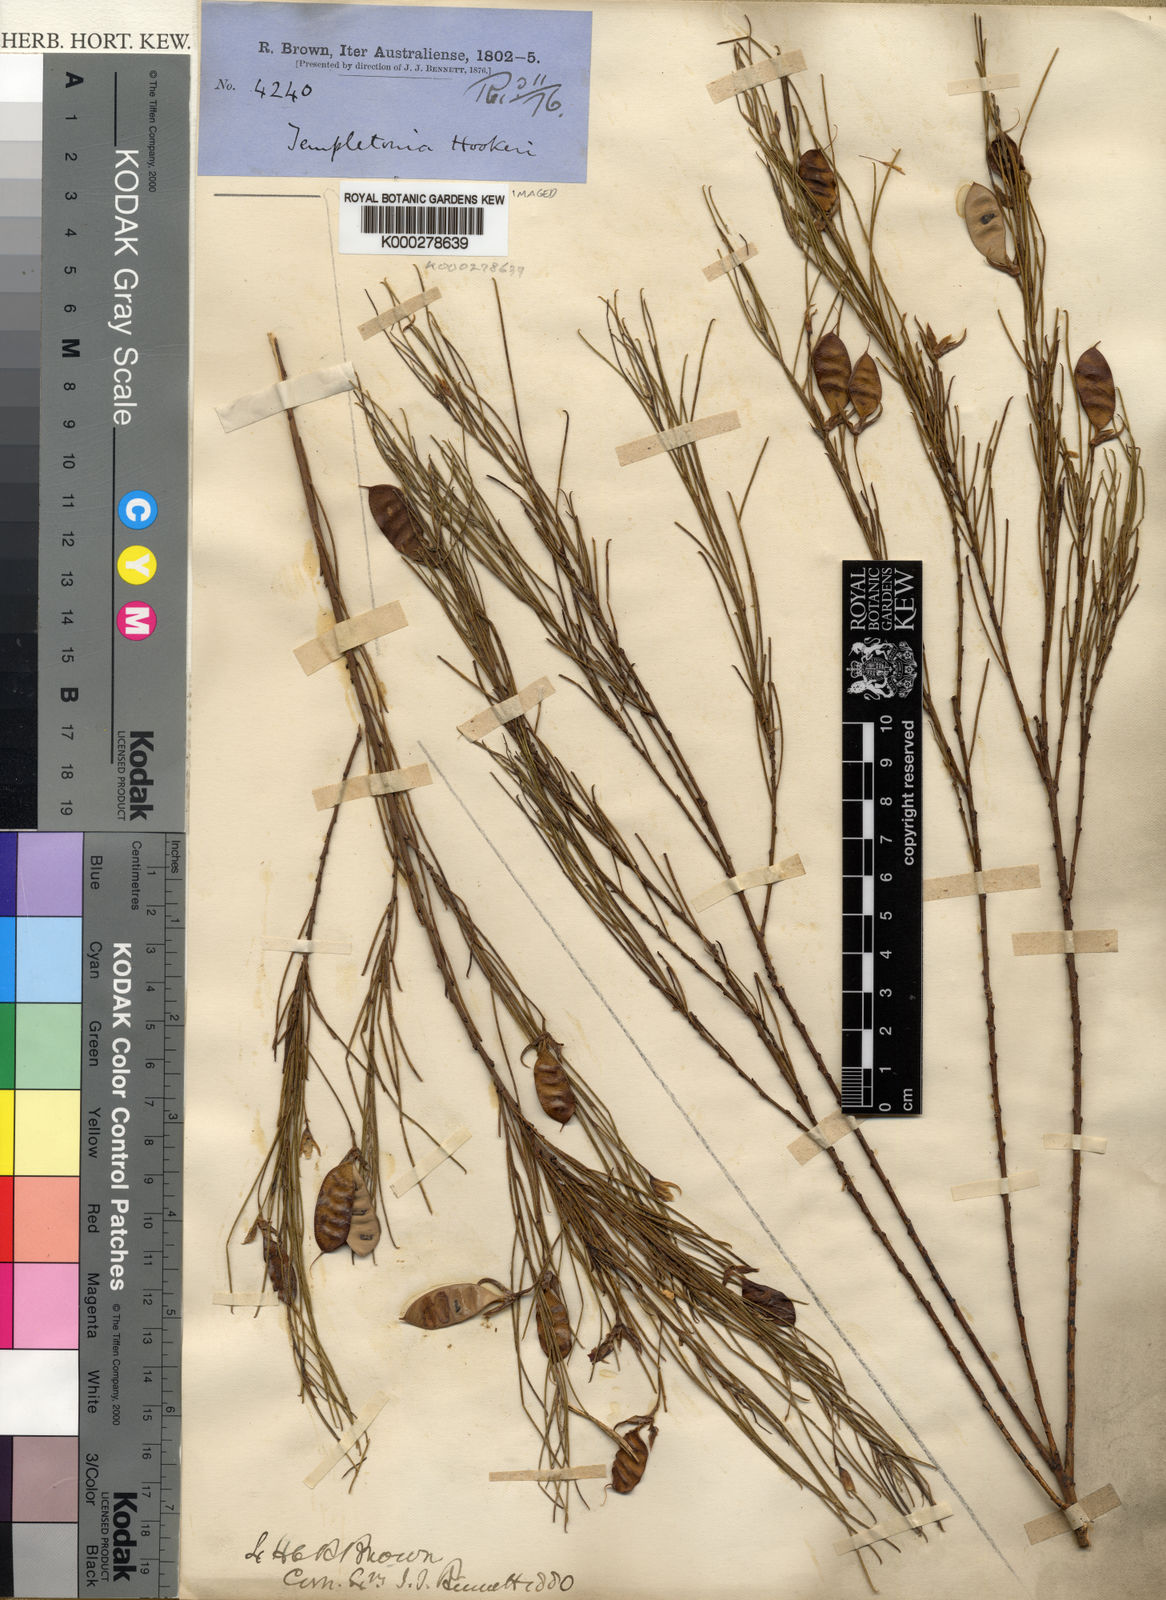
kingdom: Plantae
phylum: Tracheophyta
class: Magnoliopsida
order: Fabales
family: Fabaceae
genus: Templetonia
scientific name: Templetonia hookeri
